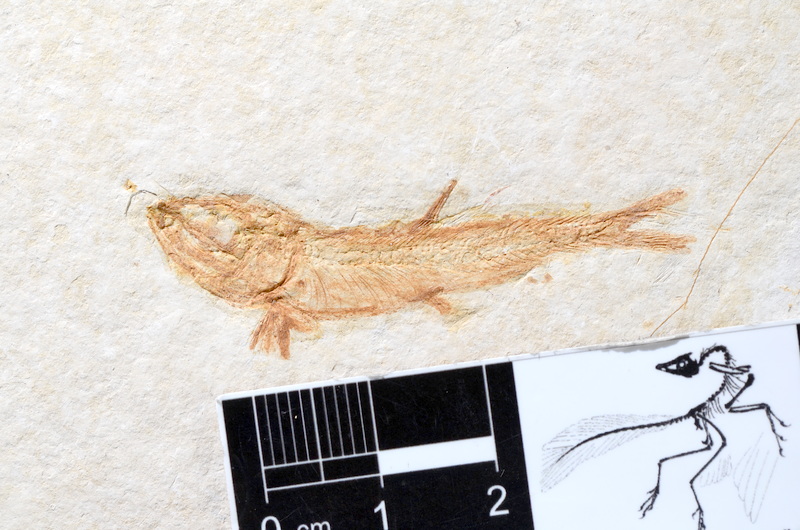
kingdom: Animalia
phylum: Chordata
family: Ascalaboidae
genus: Tharsis
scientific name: Tharsis dubius
